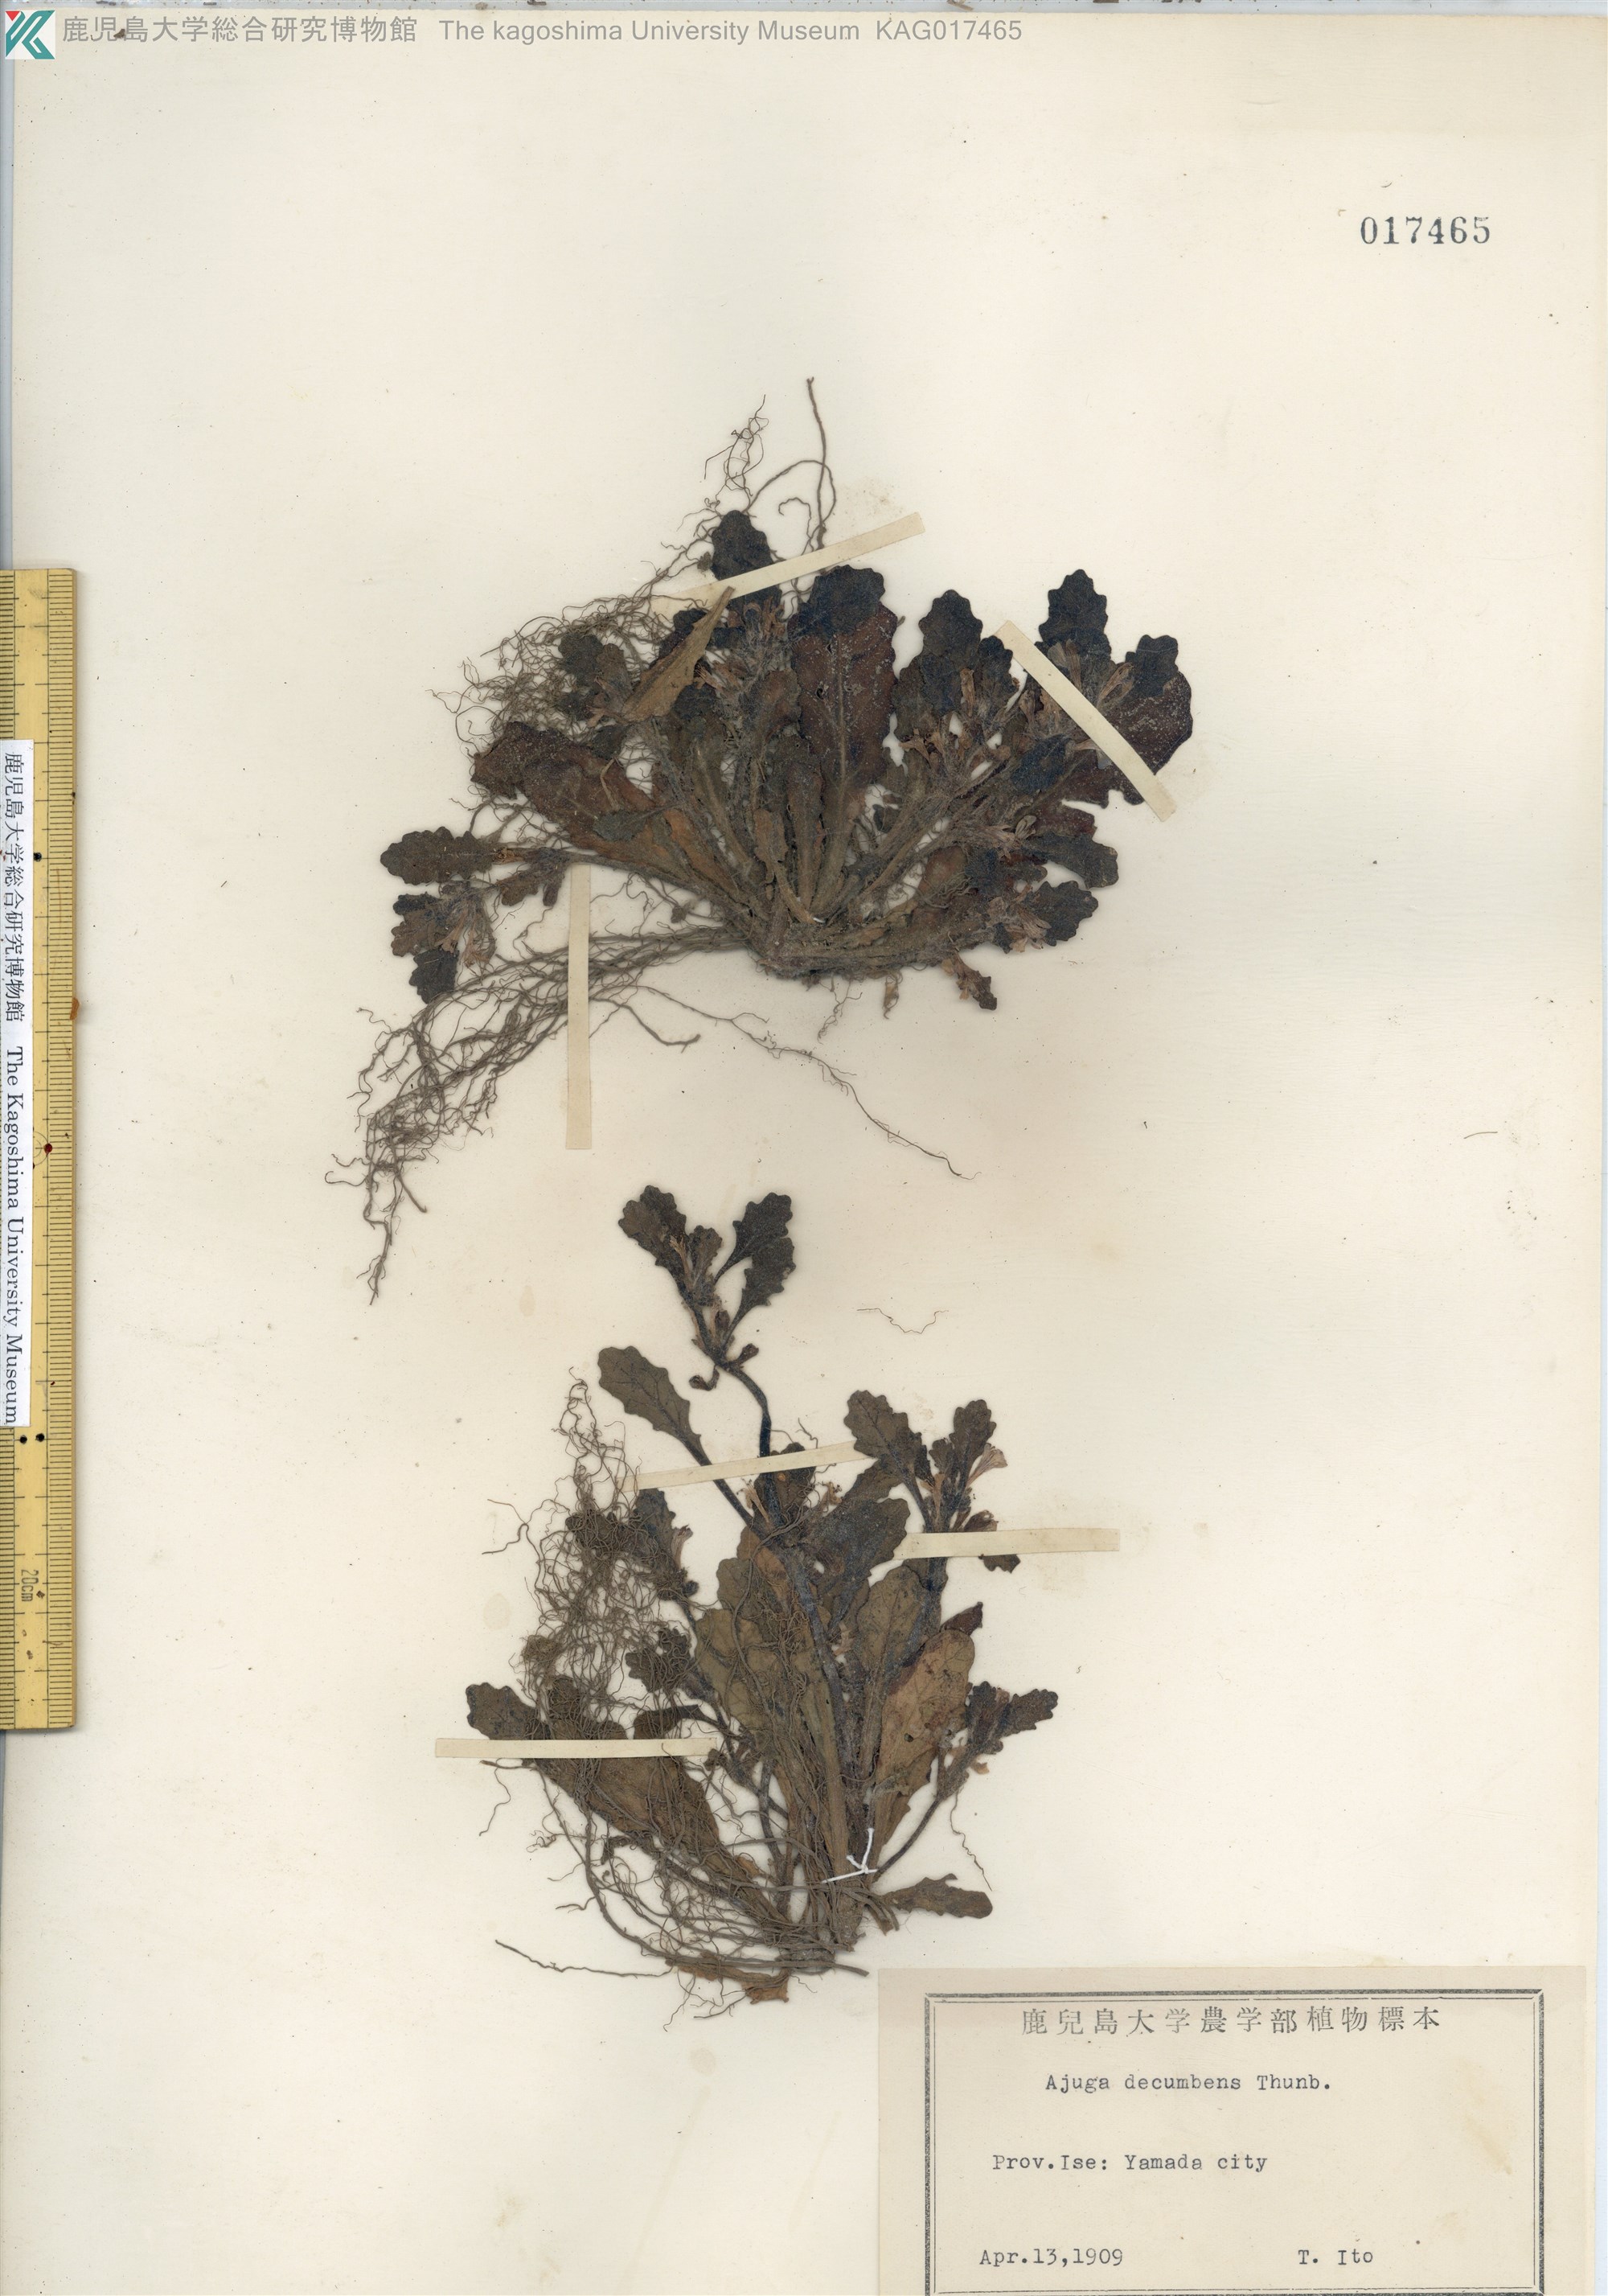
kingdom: Plantae
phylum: Tracheophyta
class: Magnoliopsida
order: Lamiales
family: Lamiaceae
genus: Ajuga
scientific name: Ajuga decumbens
